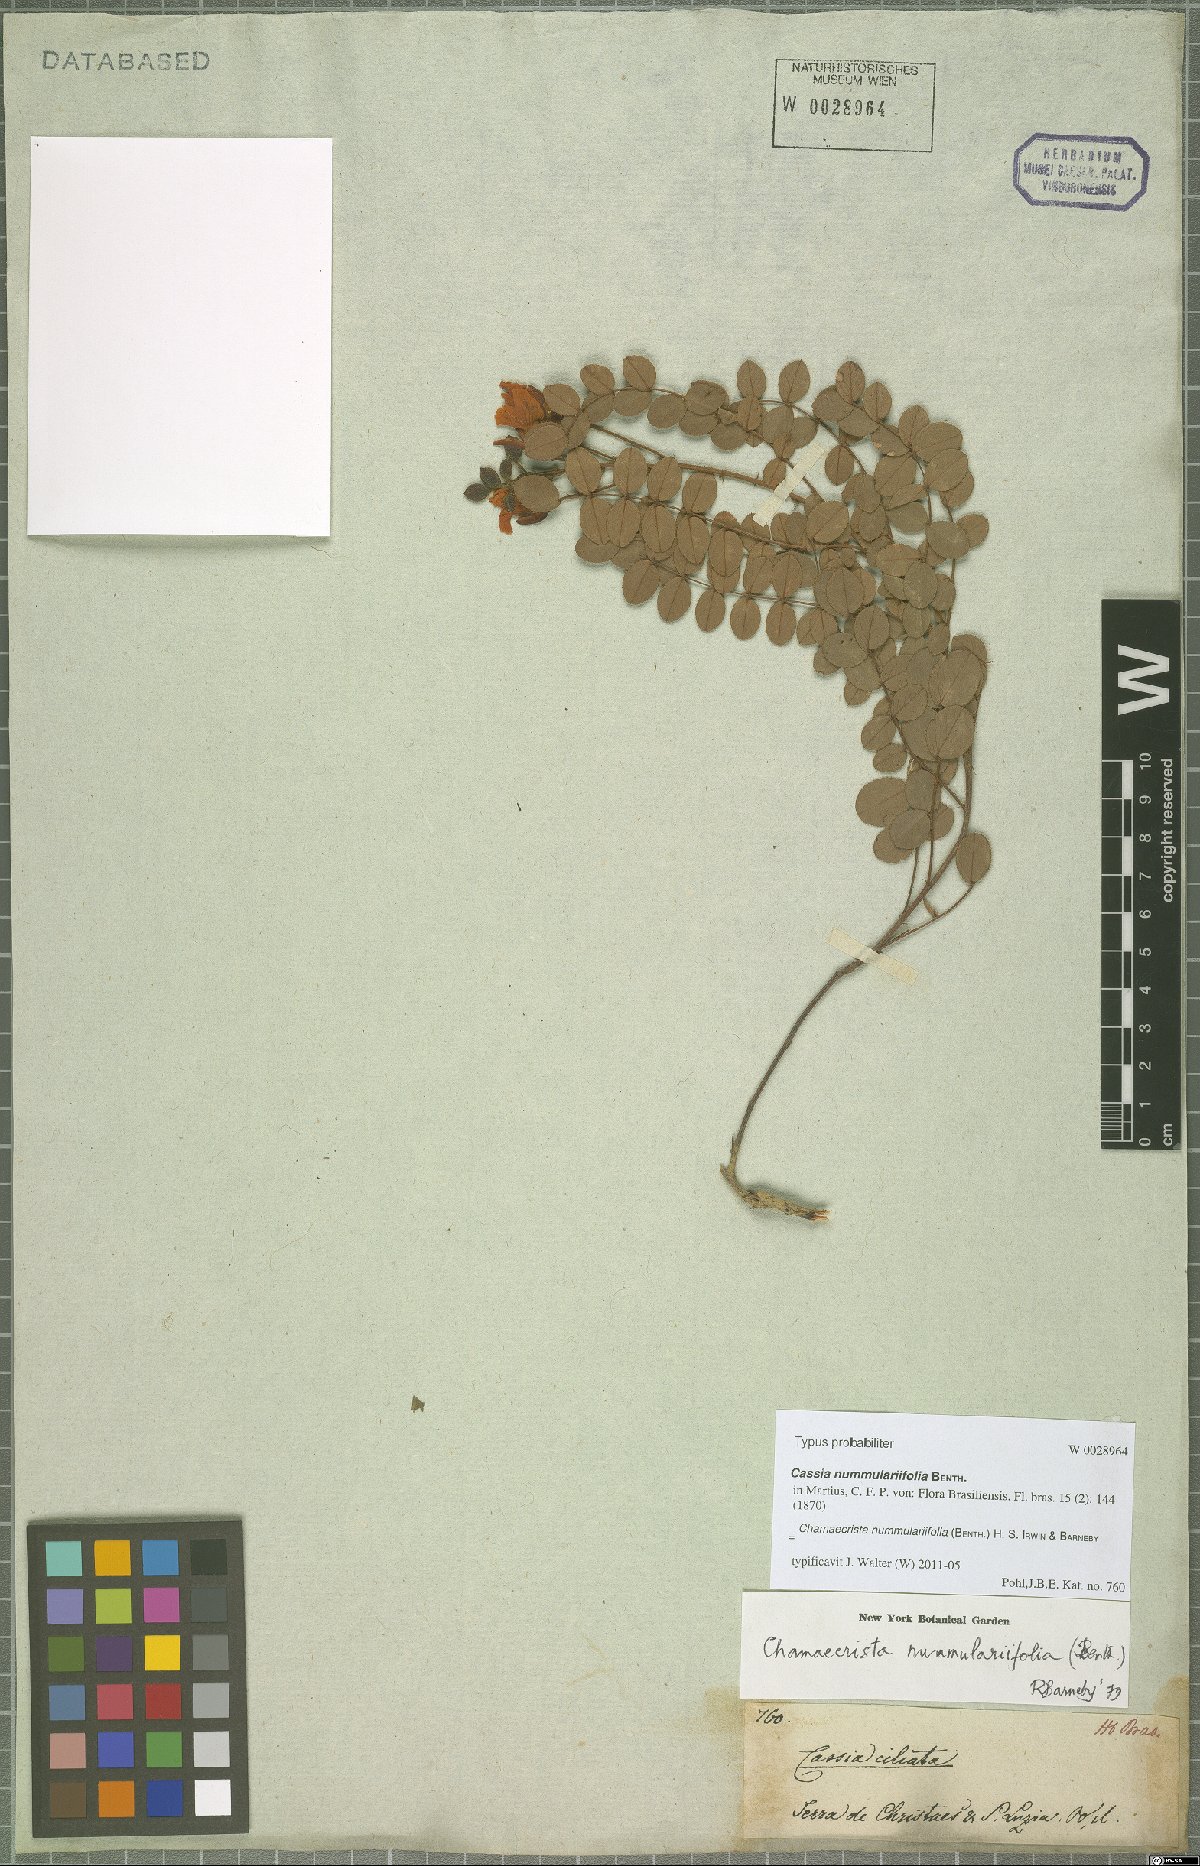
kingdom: Plantae
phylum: Tracheophyta
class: Magnoliopsida
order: Fabales
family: Fabaceae
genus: Chamaecrista
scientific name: Chamaecrista nummulariifolia
